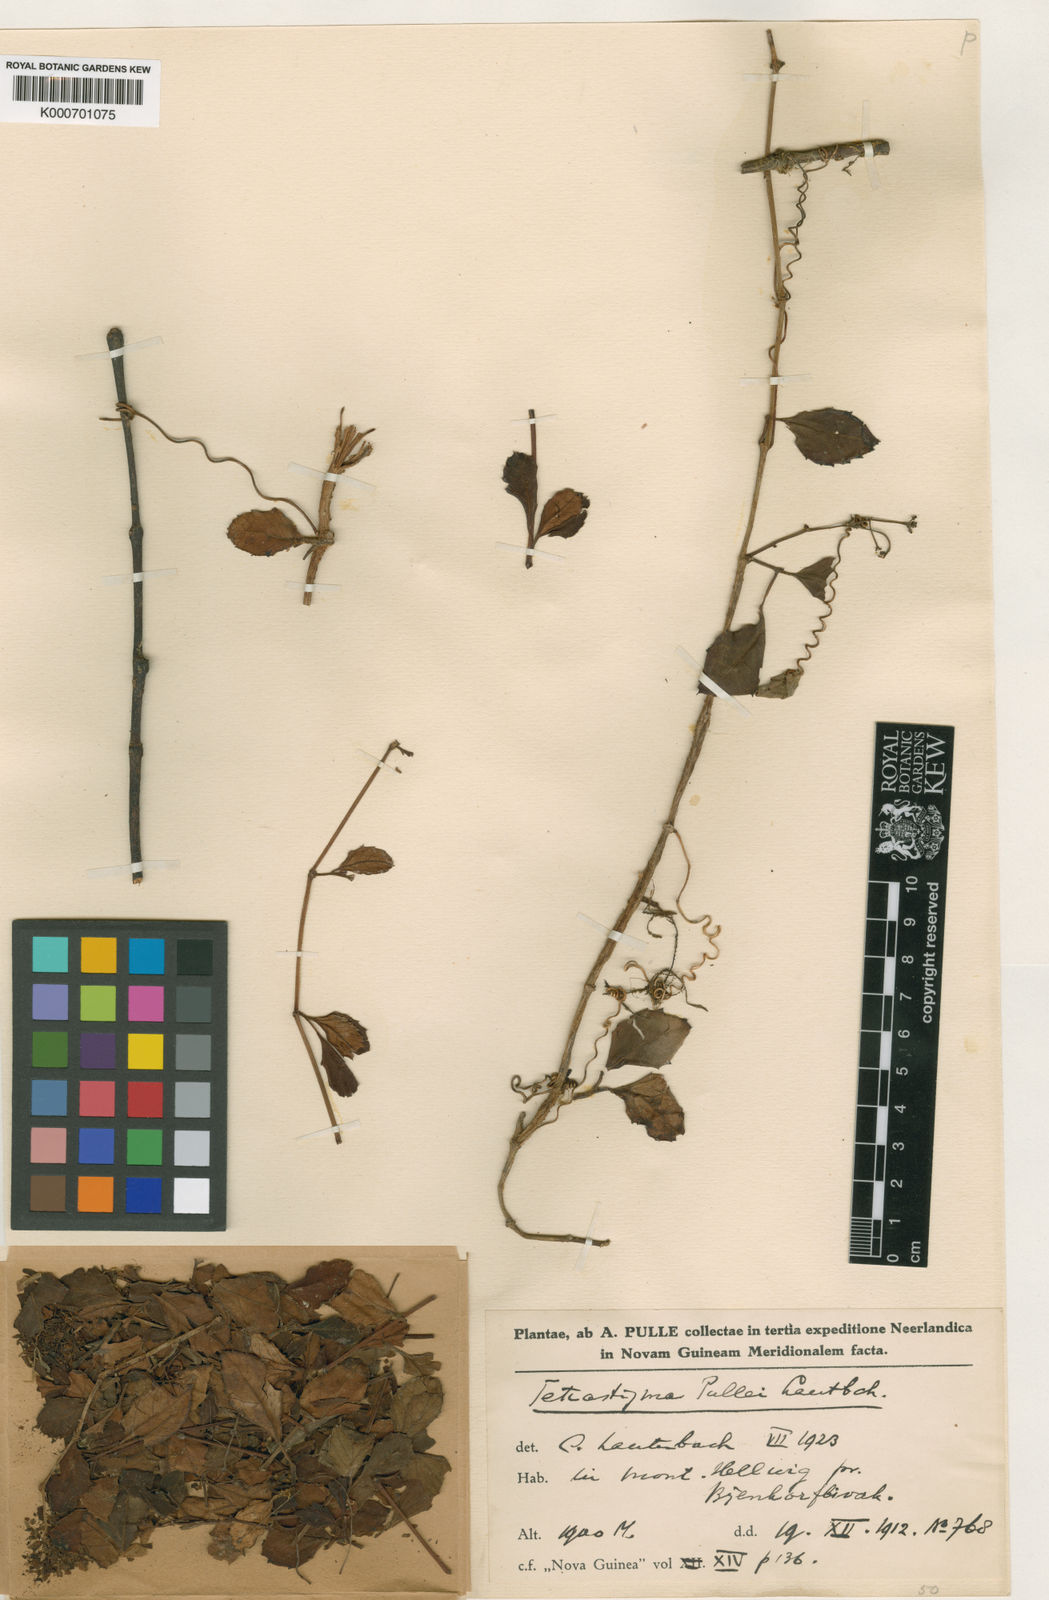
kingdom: Plantae
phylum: Tracheophyta
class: Magnoliopsida
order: Vitales
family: Vitaceae
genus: Tetrastigma
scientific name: Tetrastigma pullei
